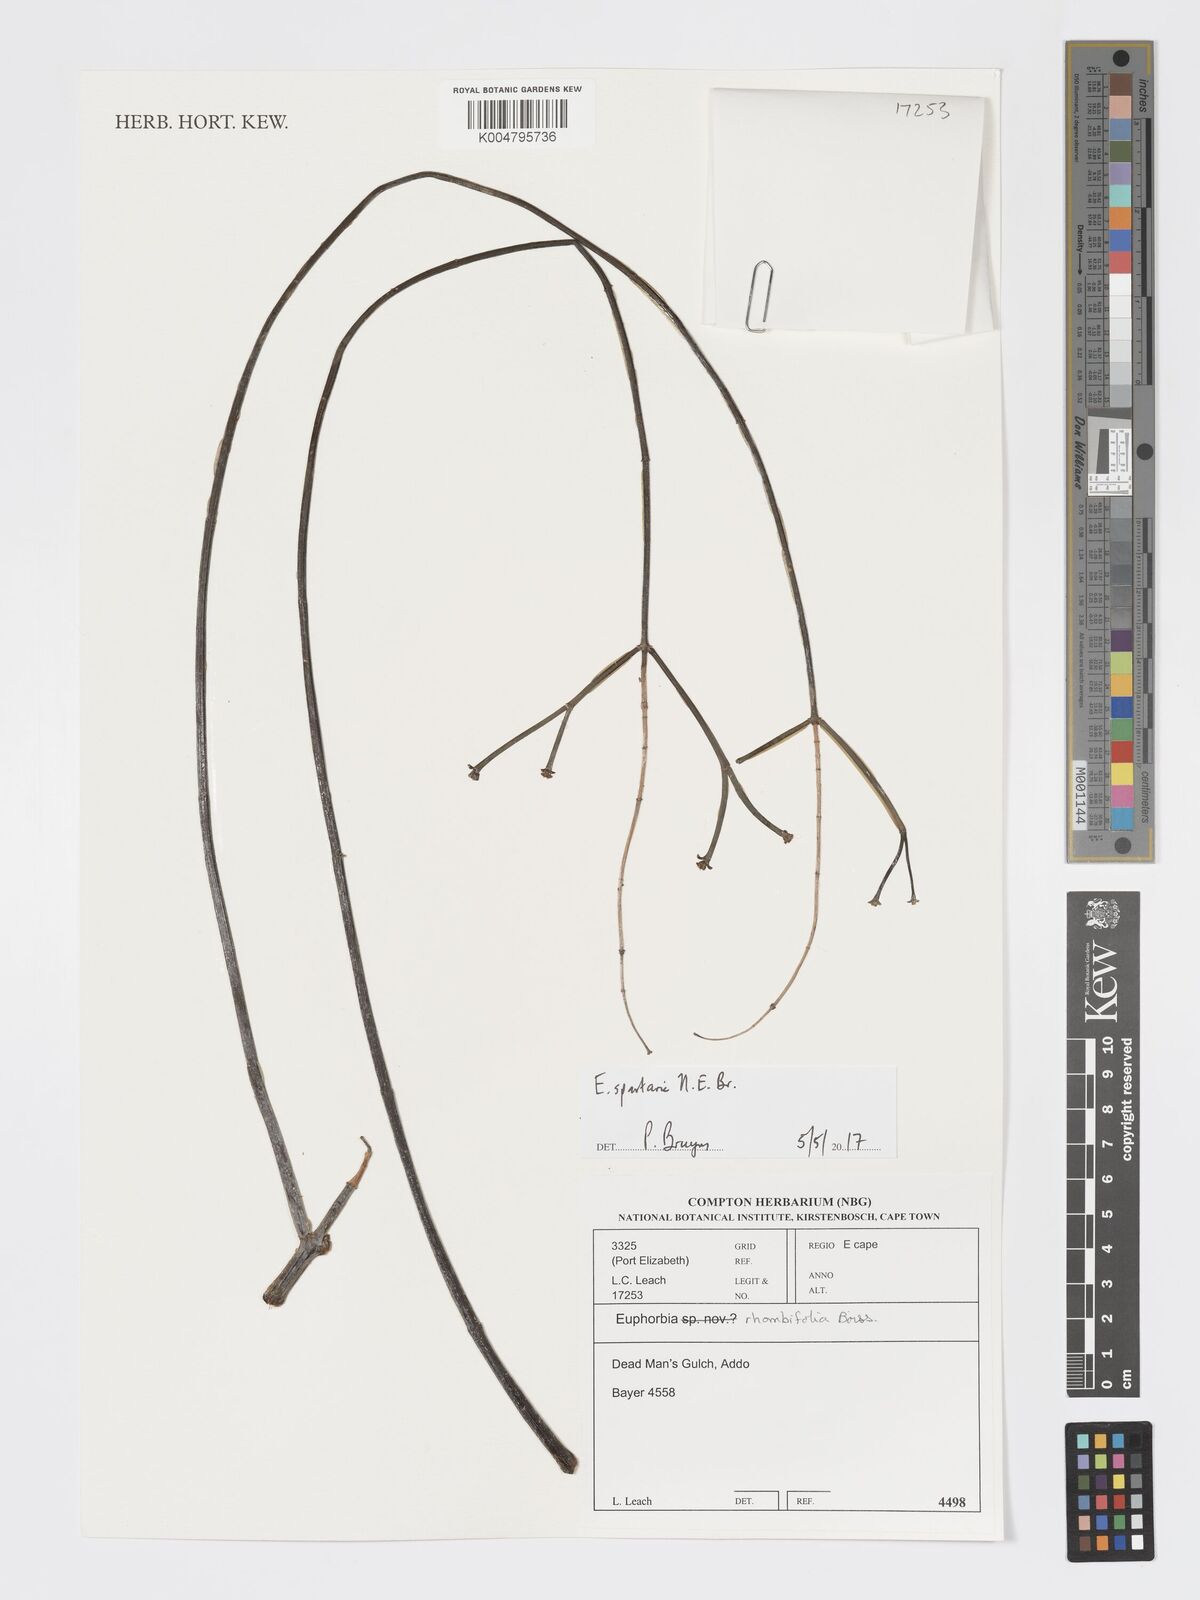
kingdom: Plantae
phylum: Tracheophyta
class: Magnoliopsida
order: Malpighiales
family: Euphorbiaceae
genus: Euphorbia
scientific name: Euphorbia spartaria
